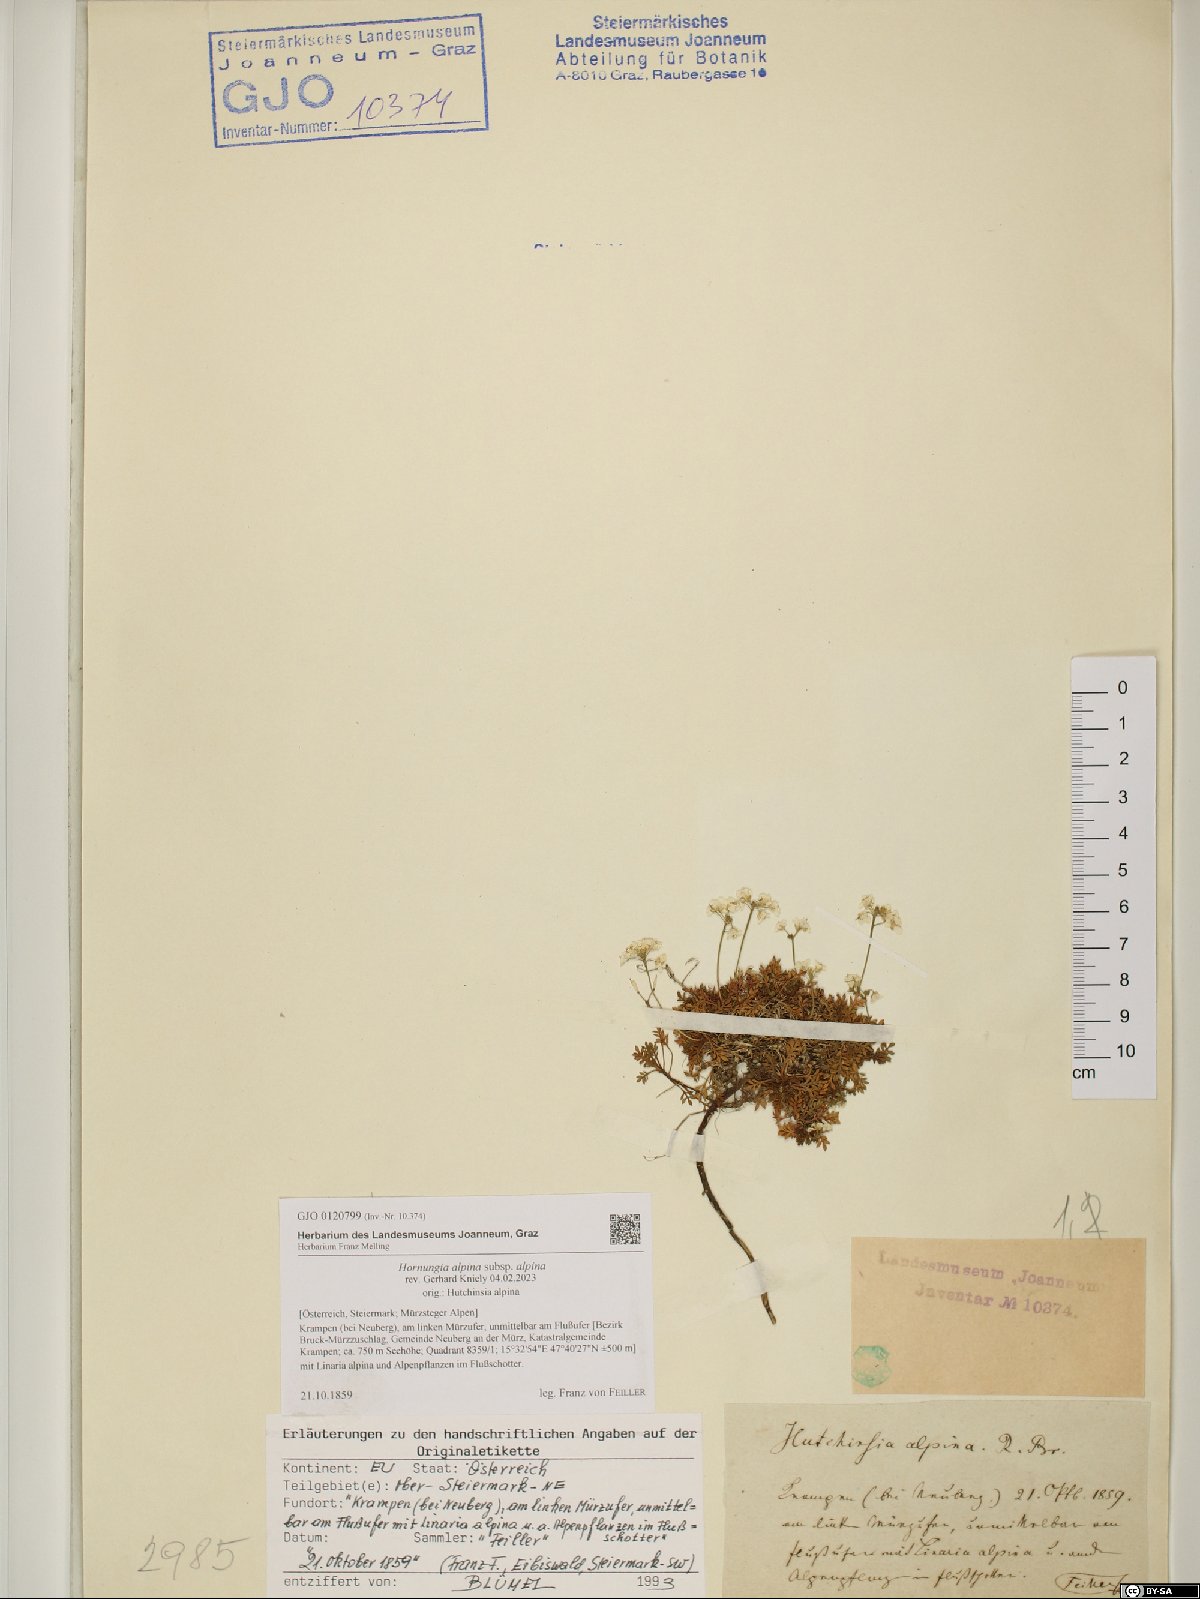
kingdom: Plantae
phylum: Tracheophyta
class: Magnoliopsida
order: Brassicales
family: Brassicaceae
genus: Hornungia
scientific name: Hornungia alpina
